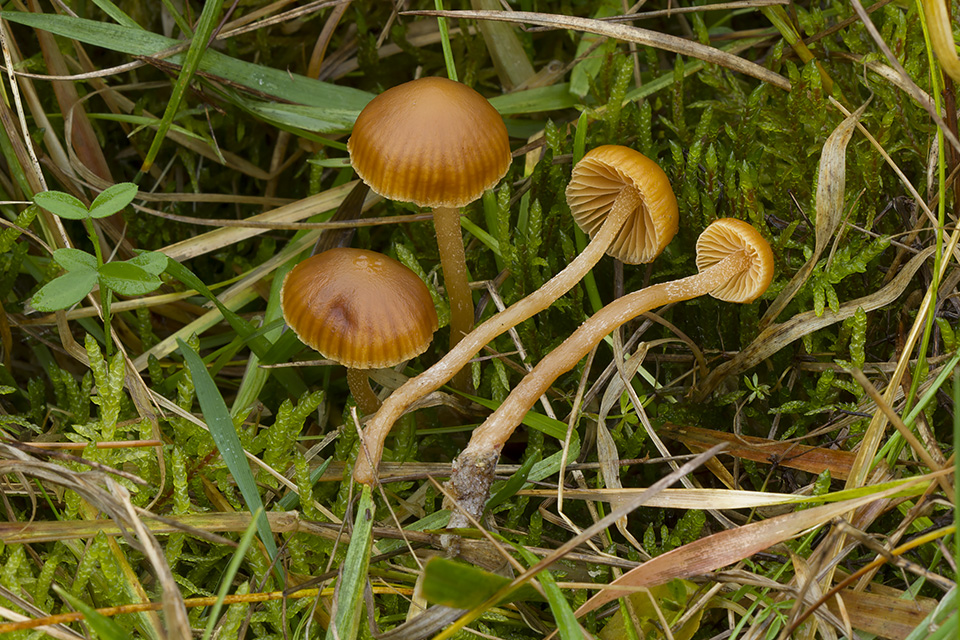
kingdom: Fungi
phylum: Basidiomycota
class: Agaricomycetes
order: Agaricales
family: Hymenogastraceae
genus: Galerina
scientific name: Galerina clavata
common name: kær-hjelmhat
